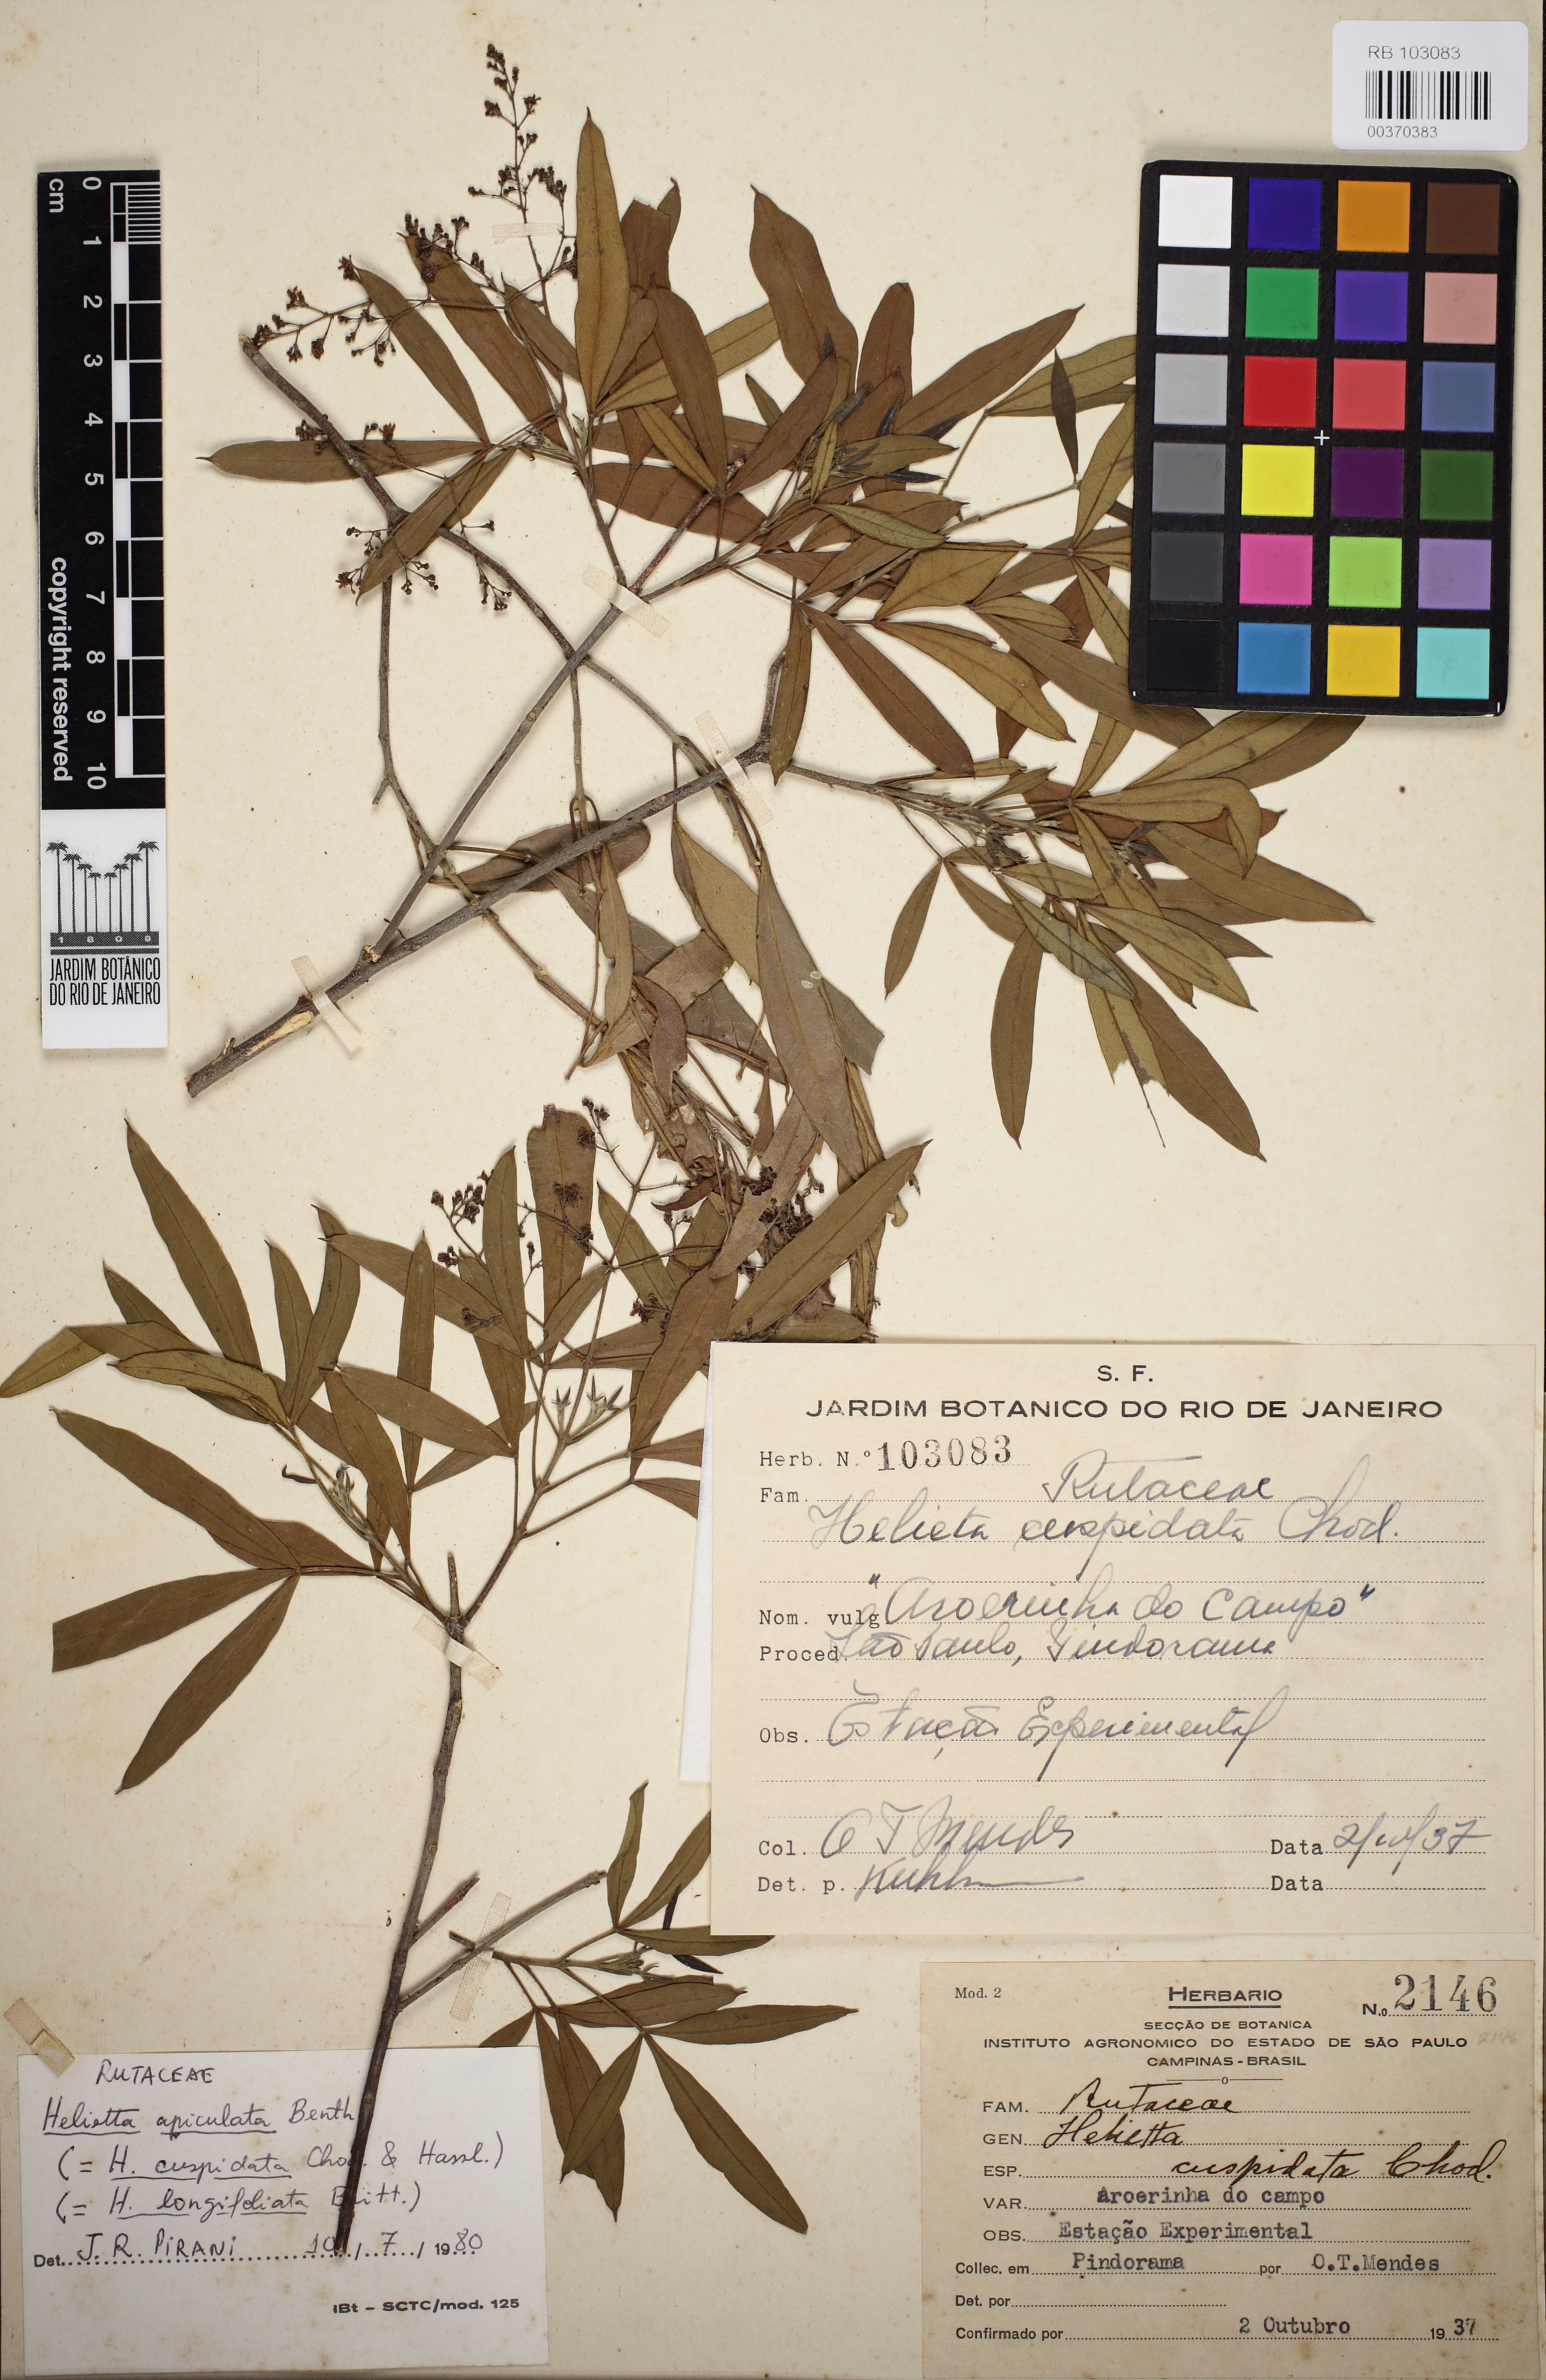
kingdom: Plantae
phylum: Tracheophyta
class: Magnoliopsida
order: Sapindales
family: Rutaceae
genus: Helietta
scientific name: Helietta apiculata
